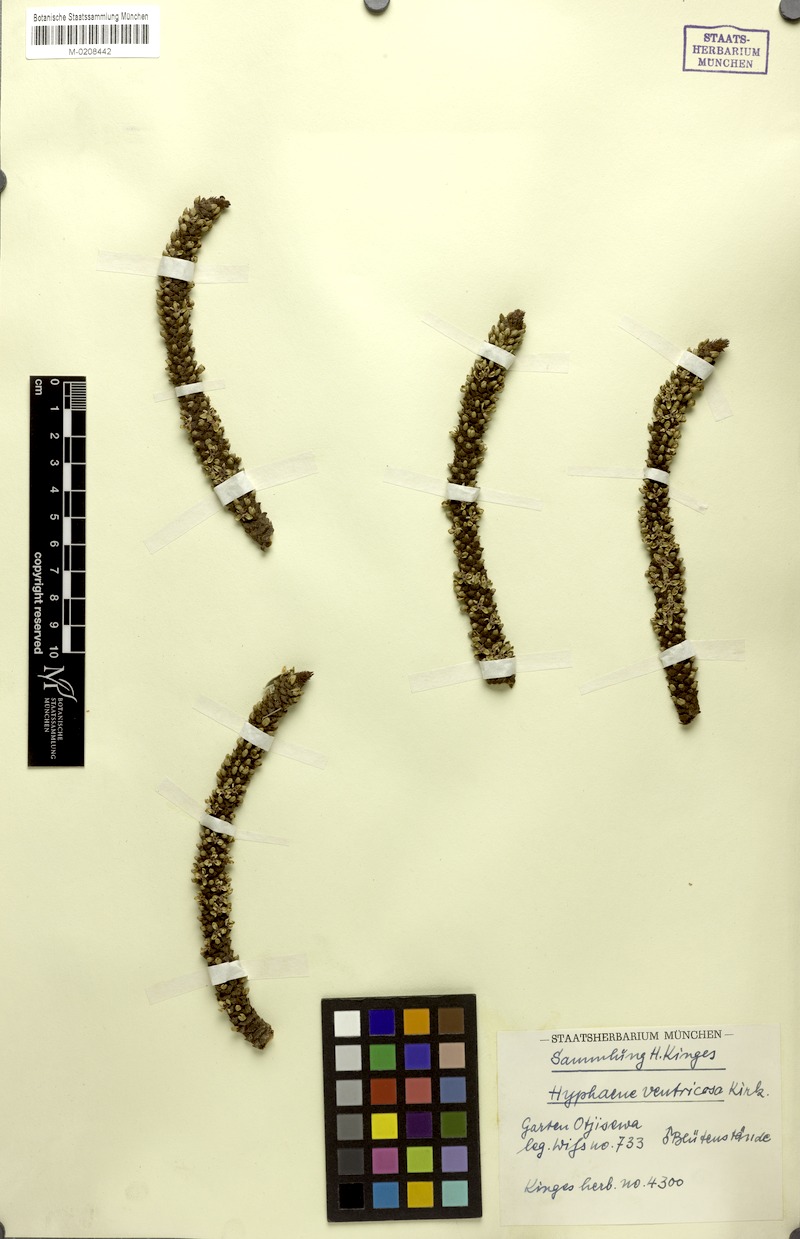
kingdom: Plantae
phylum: Tracheophyta
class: Liliopsida
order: Arecales
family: Arecaceae
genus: Hyphaene
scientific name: Hyphaene petersiana
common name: African ivory nut palm
